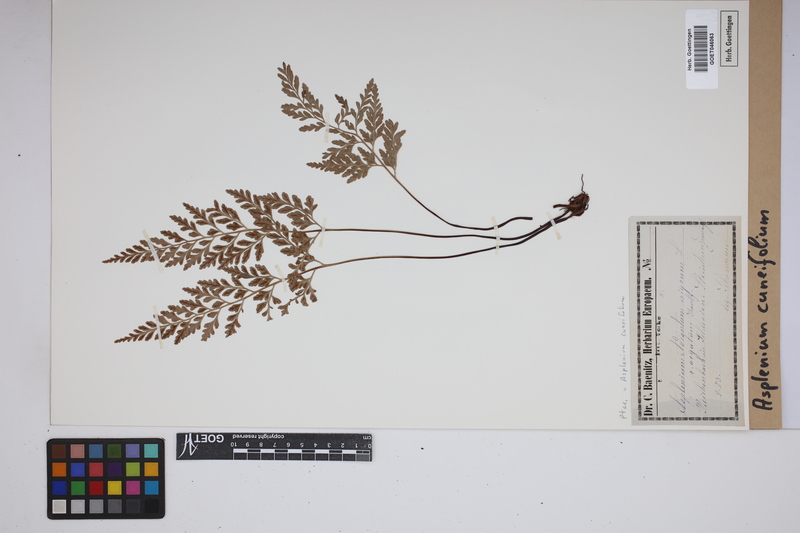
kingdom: Plantae
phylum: Tracheophyta
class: Polypodiopsida
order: Polypodiales
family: Aspleniaceae
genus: Asplenium
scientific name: Asplenium cuneifolium
